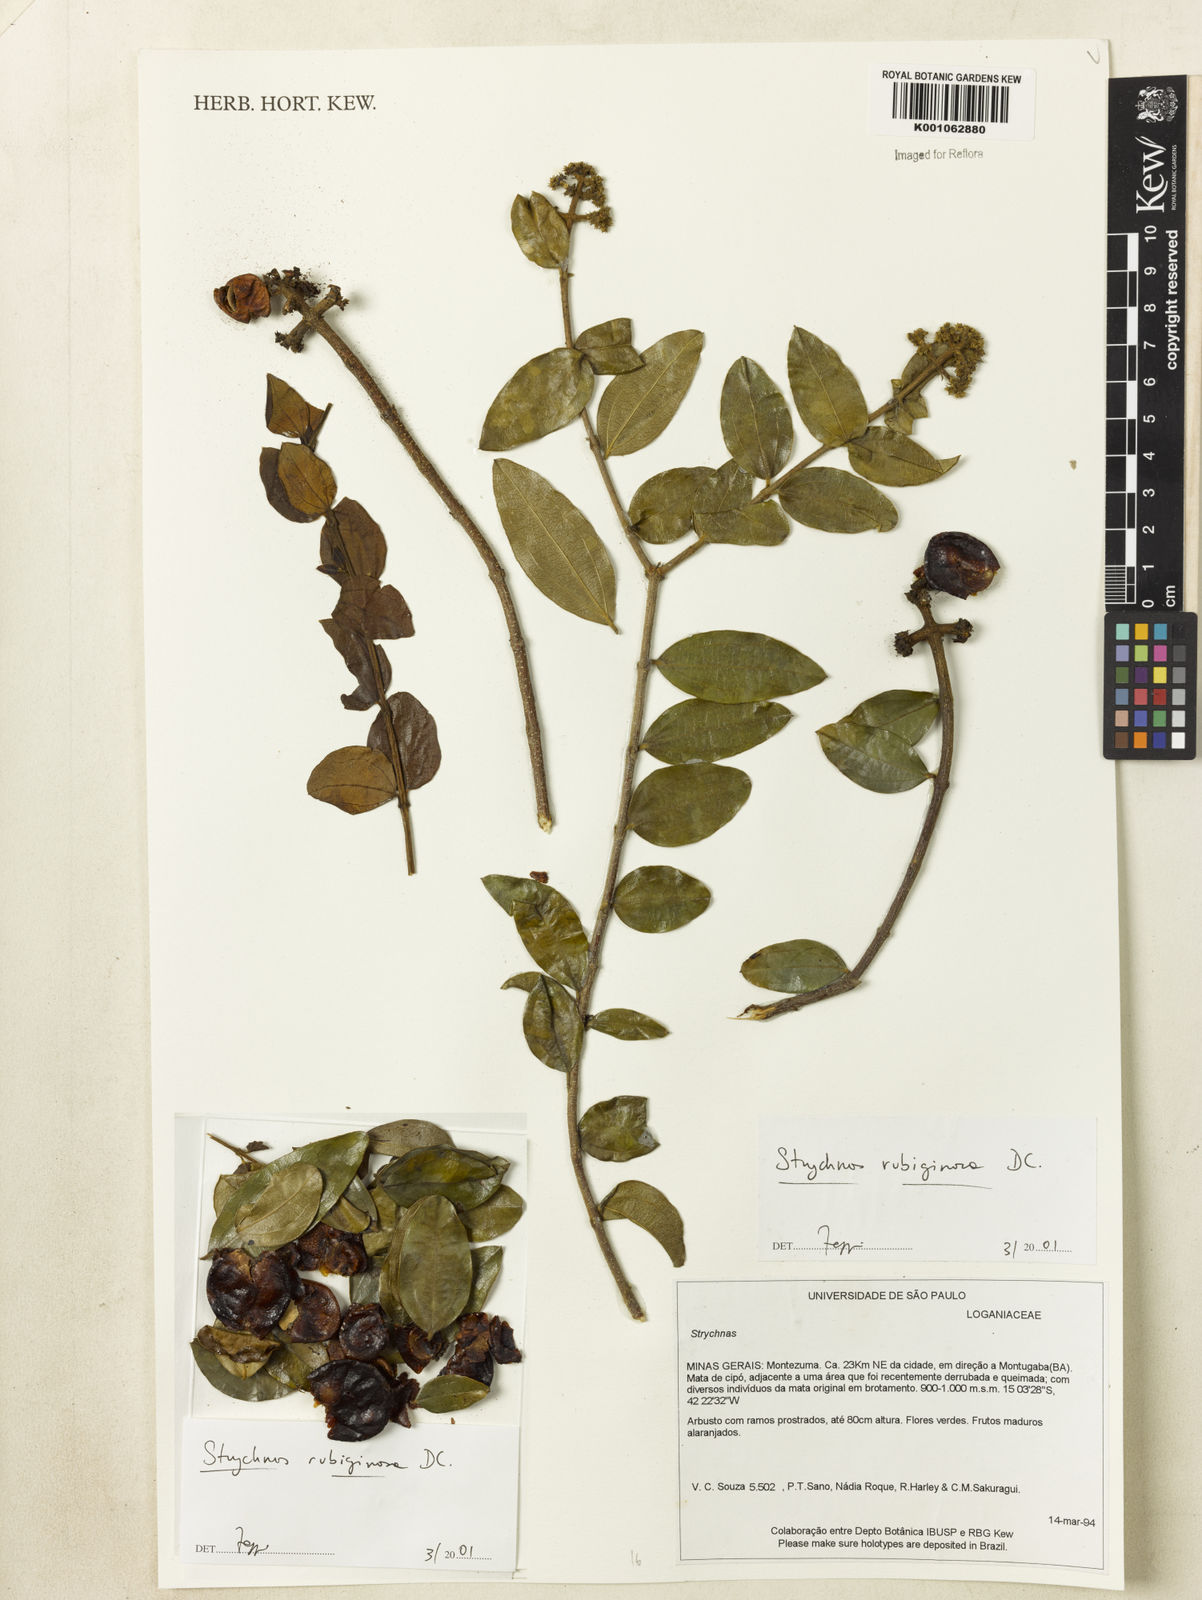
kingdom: Plantae
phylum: Tracheophyta
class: Magnoliopsida
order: Gentianales
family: Loganiaceae
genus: Strychnos
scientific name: Strychnos rubiginosa
